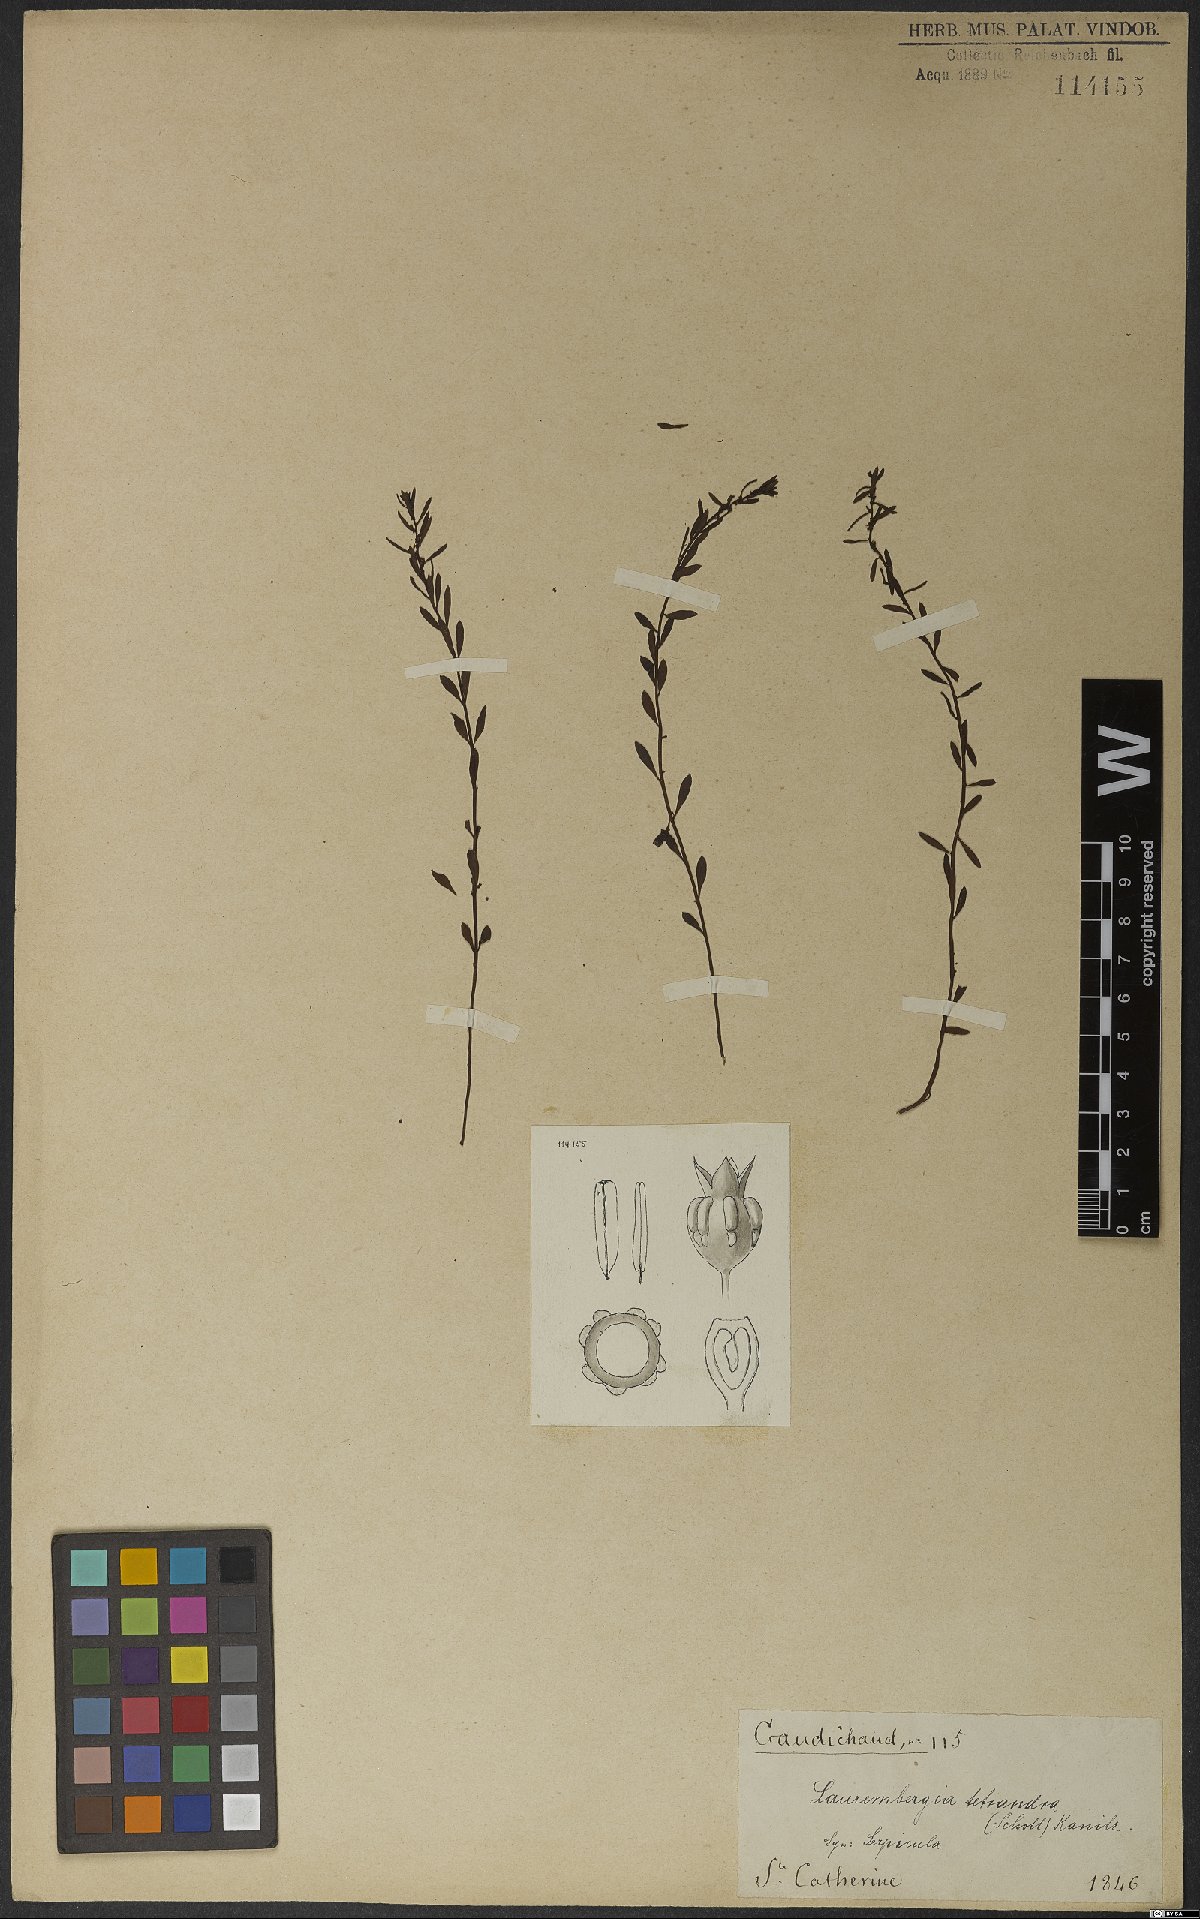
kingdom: Plantae
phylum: Tracheophyta
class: Magnoliopsida
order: Saxifragales
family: Haloragaceae
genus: Laurembergia
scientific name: Laurembergia tetrandra
